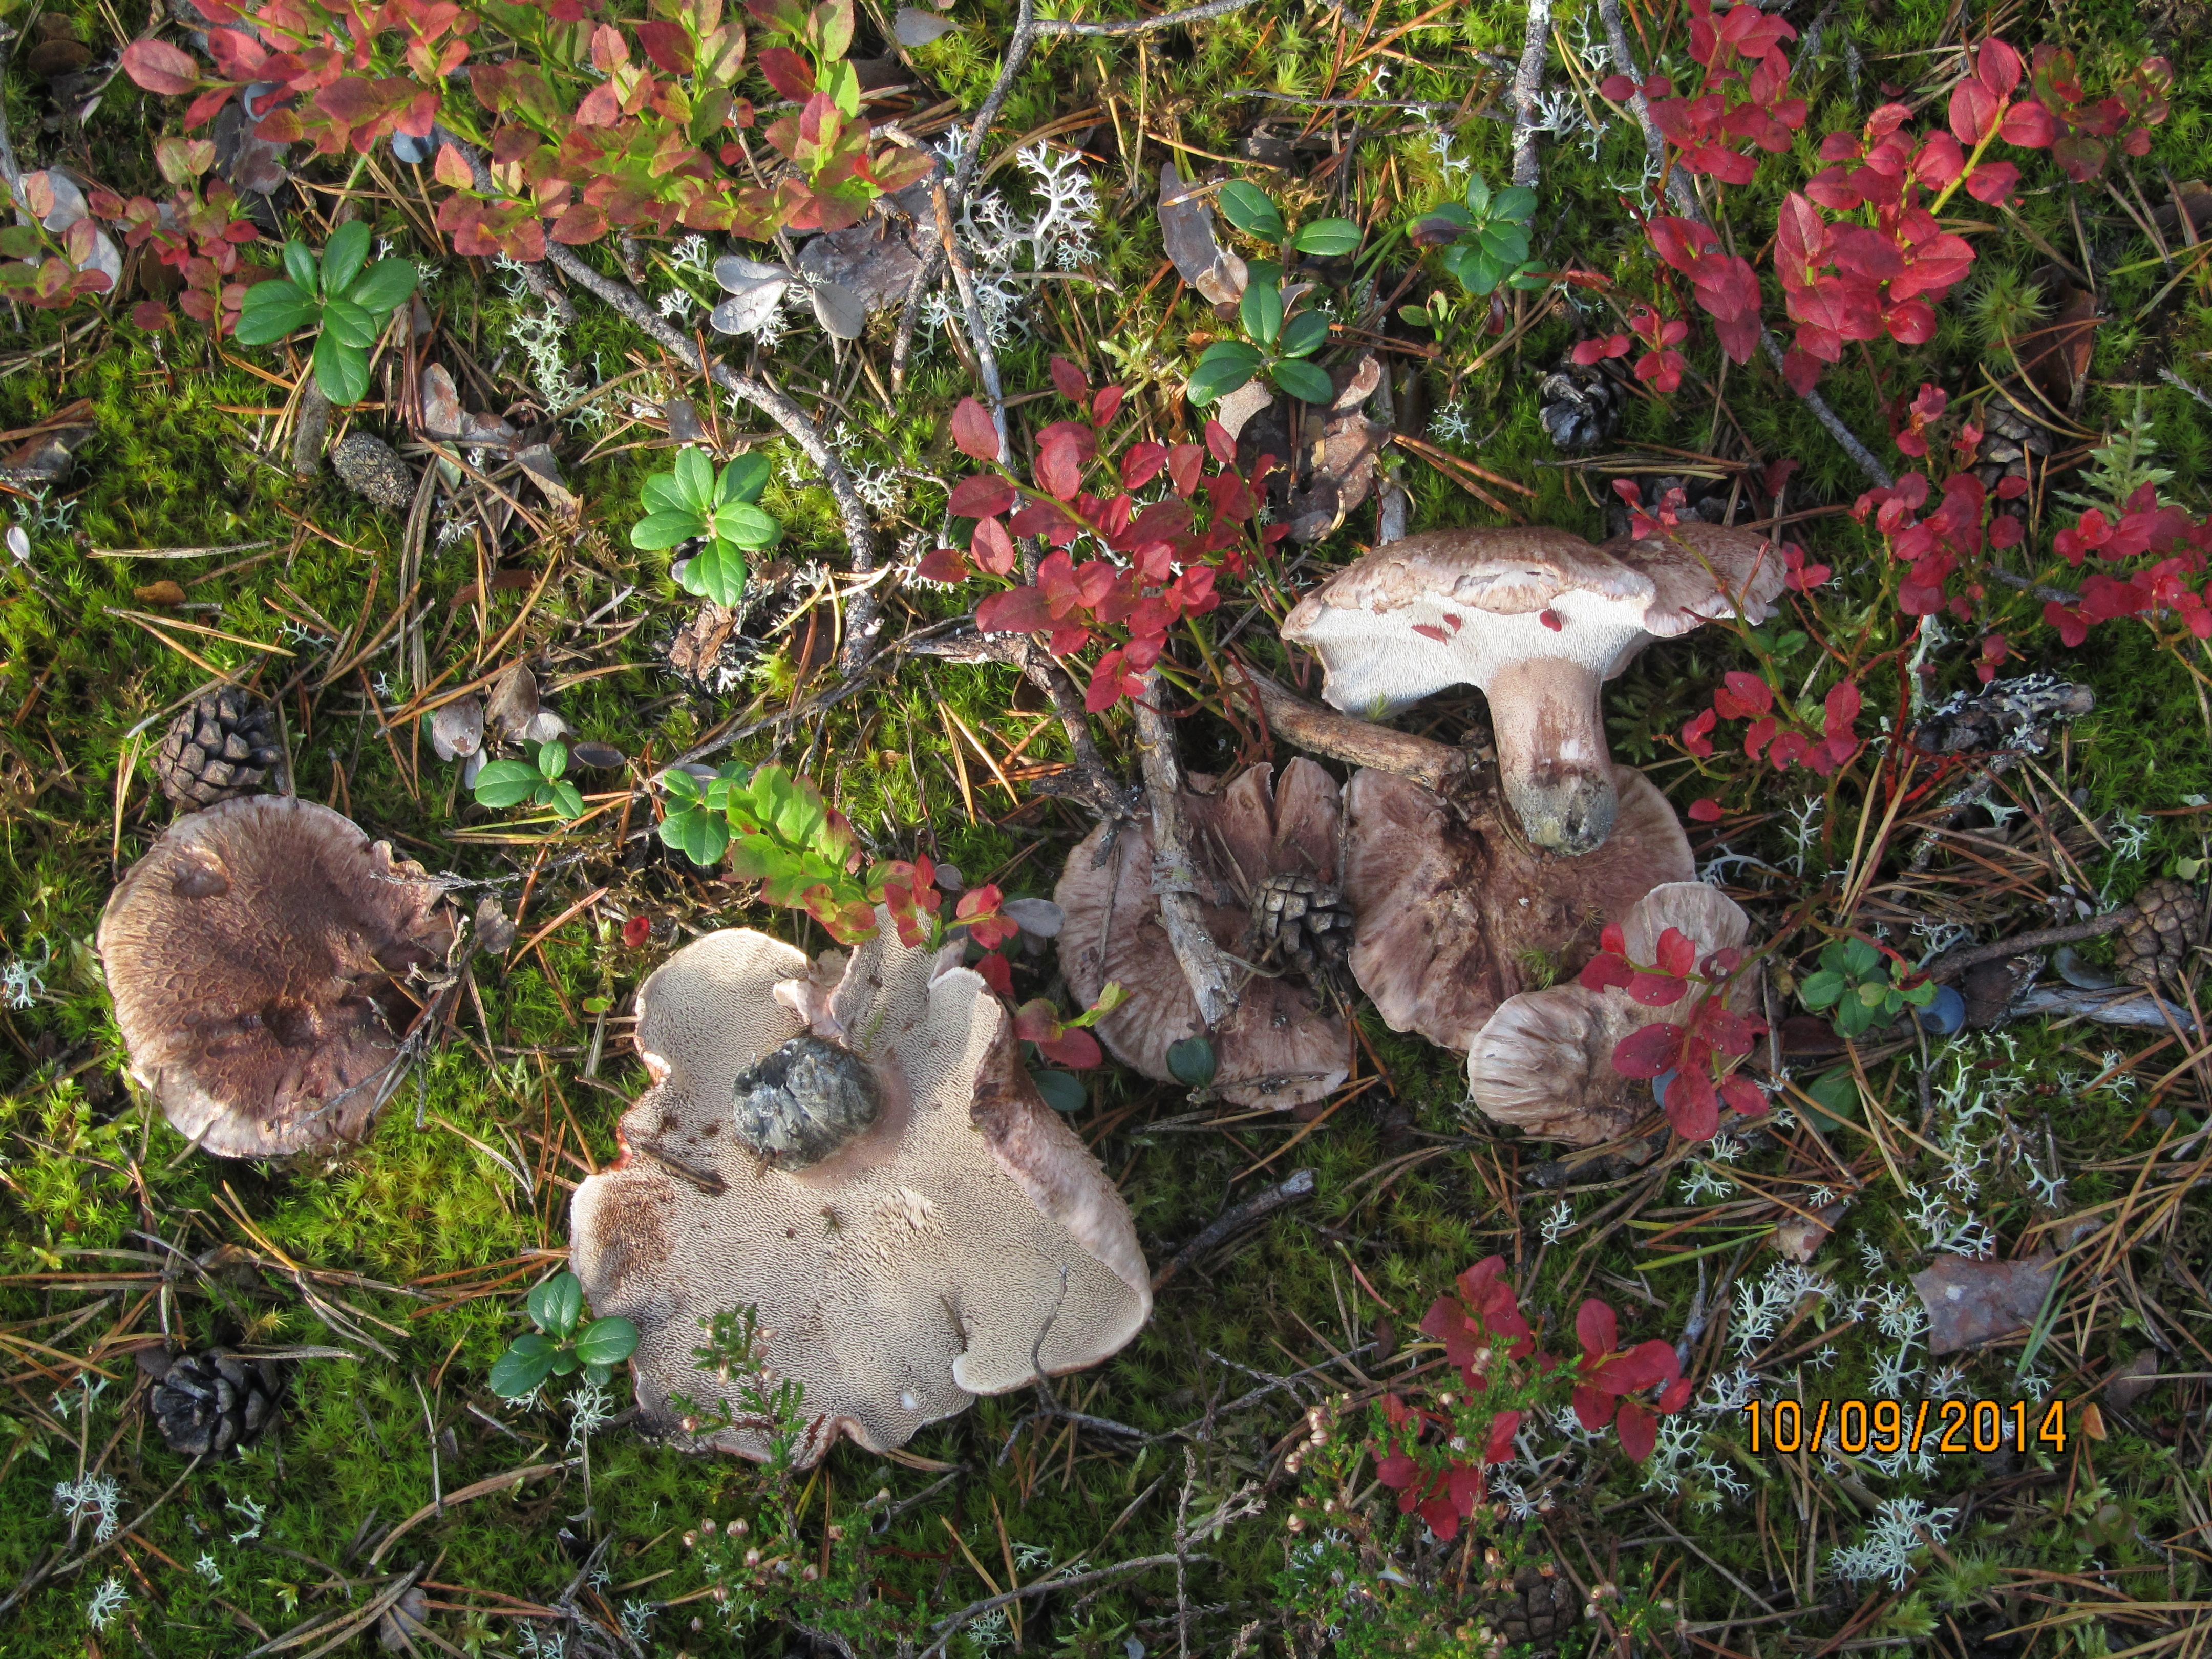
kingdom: Fungi
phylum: Basidiomycota
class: Agaricomycetes
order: Thelephorales
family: Bankeraceae
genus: Hydnellum
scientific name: Hydnellum scabrosum
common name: Bitter tooth
